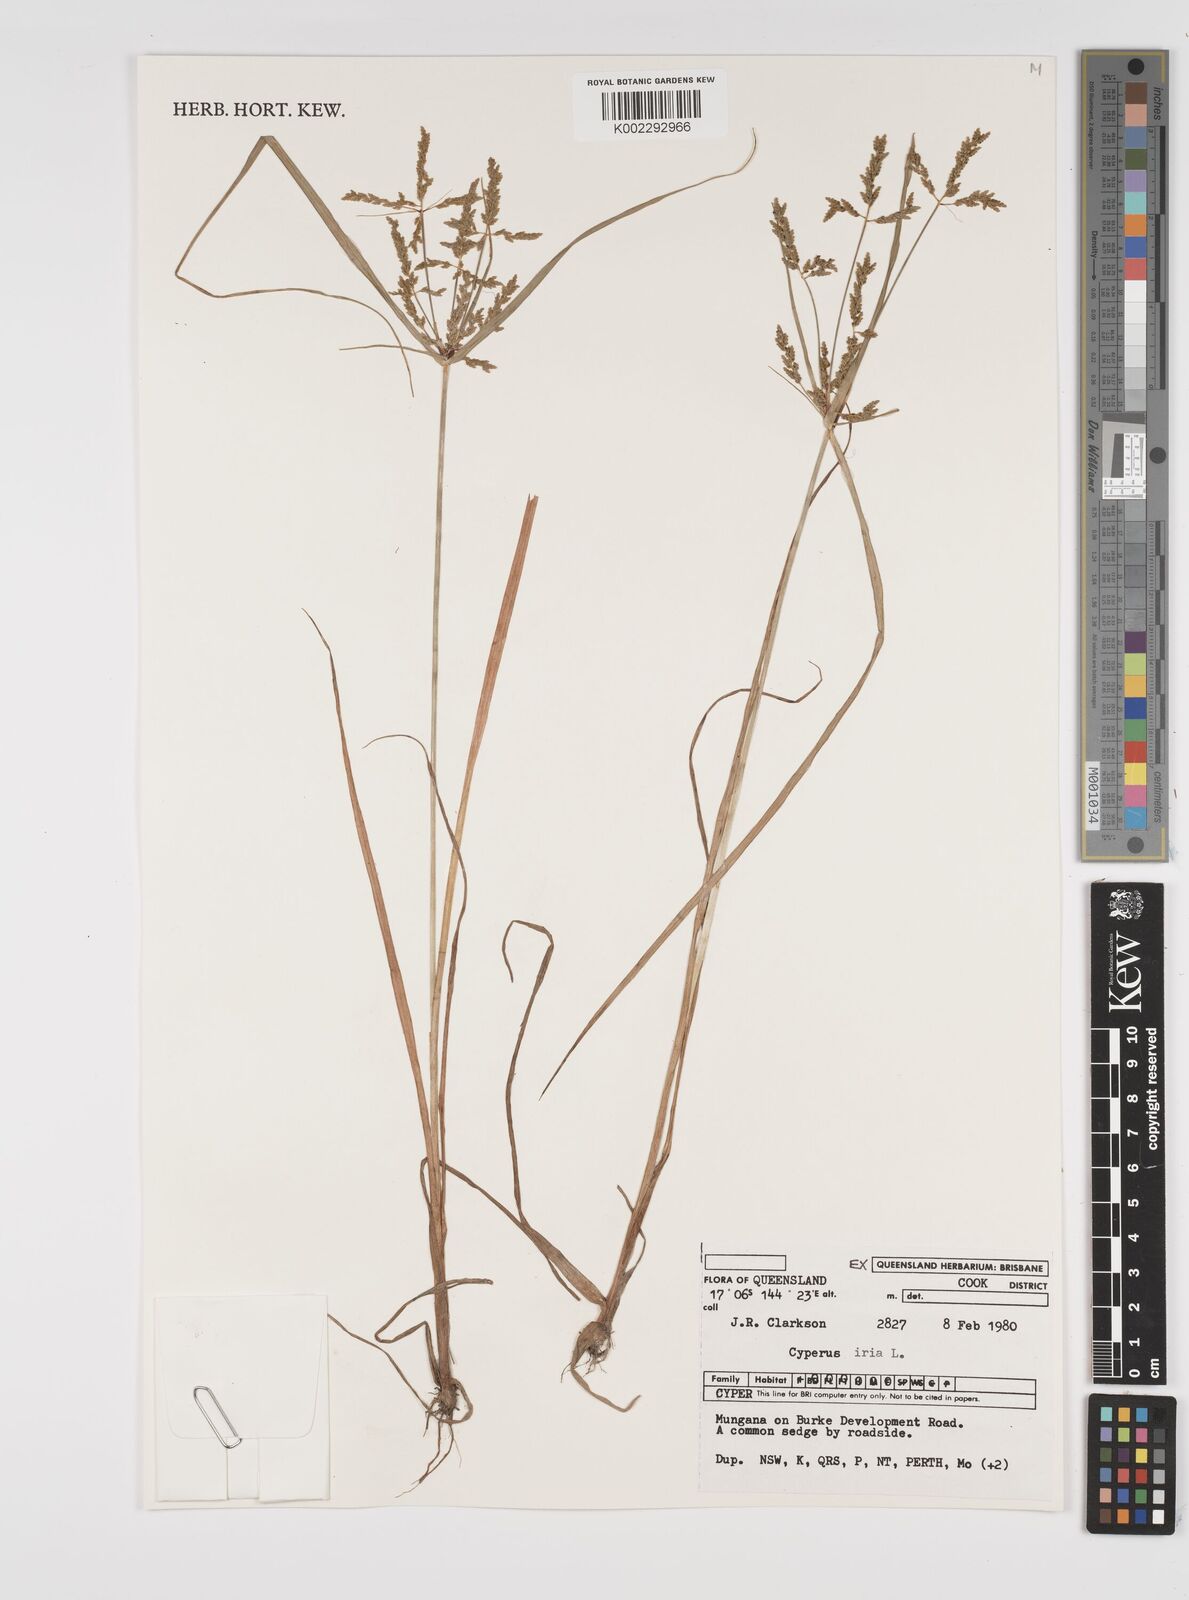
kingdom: Plantae
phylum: Tracheophyta
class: Liliopsida
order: Poales
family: Cyperaceae
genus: Cyperus
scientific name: Cyperus iria
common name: Ricefield flatsedge
